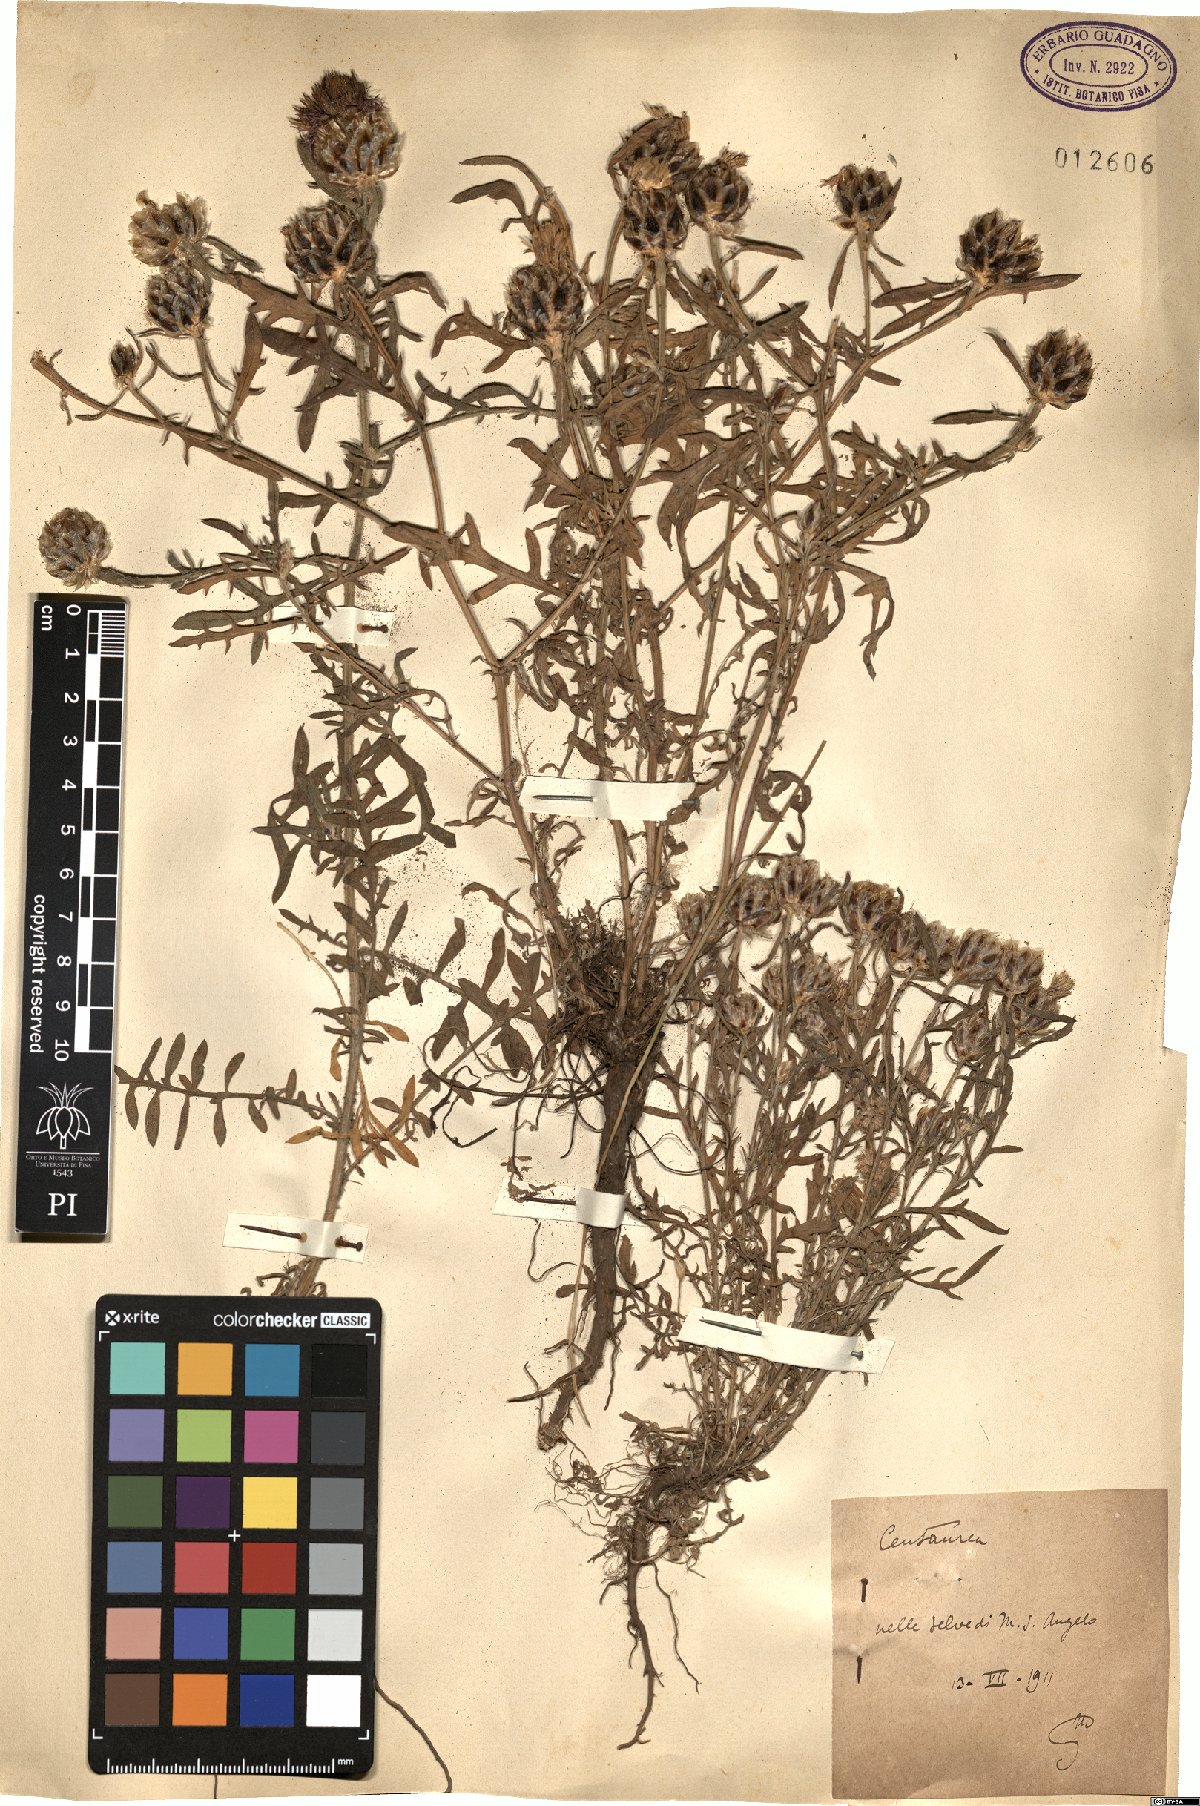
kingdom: Plantae
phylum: Tracheophyta
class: Magnoliopsida
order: Asterales
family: Asteraceae
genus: Centaurea
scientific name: Centaurea
